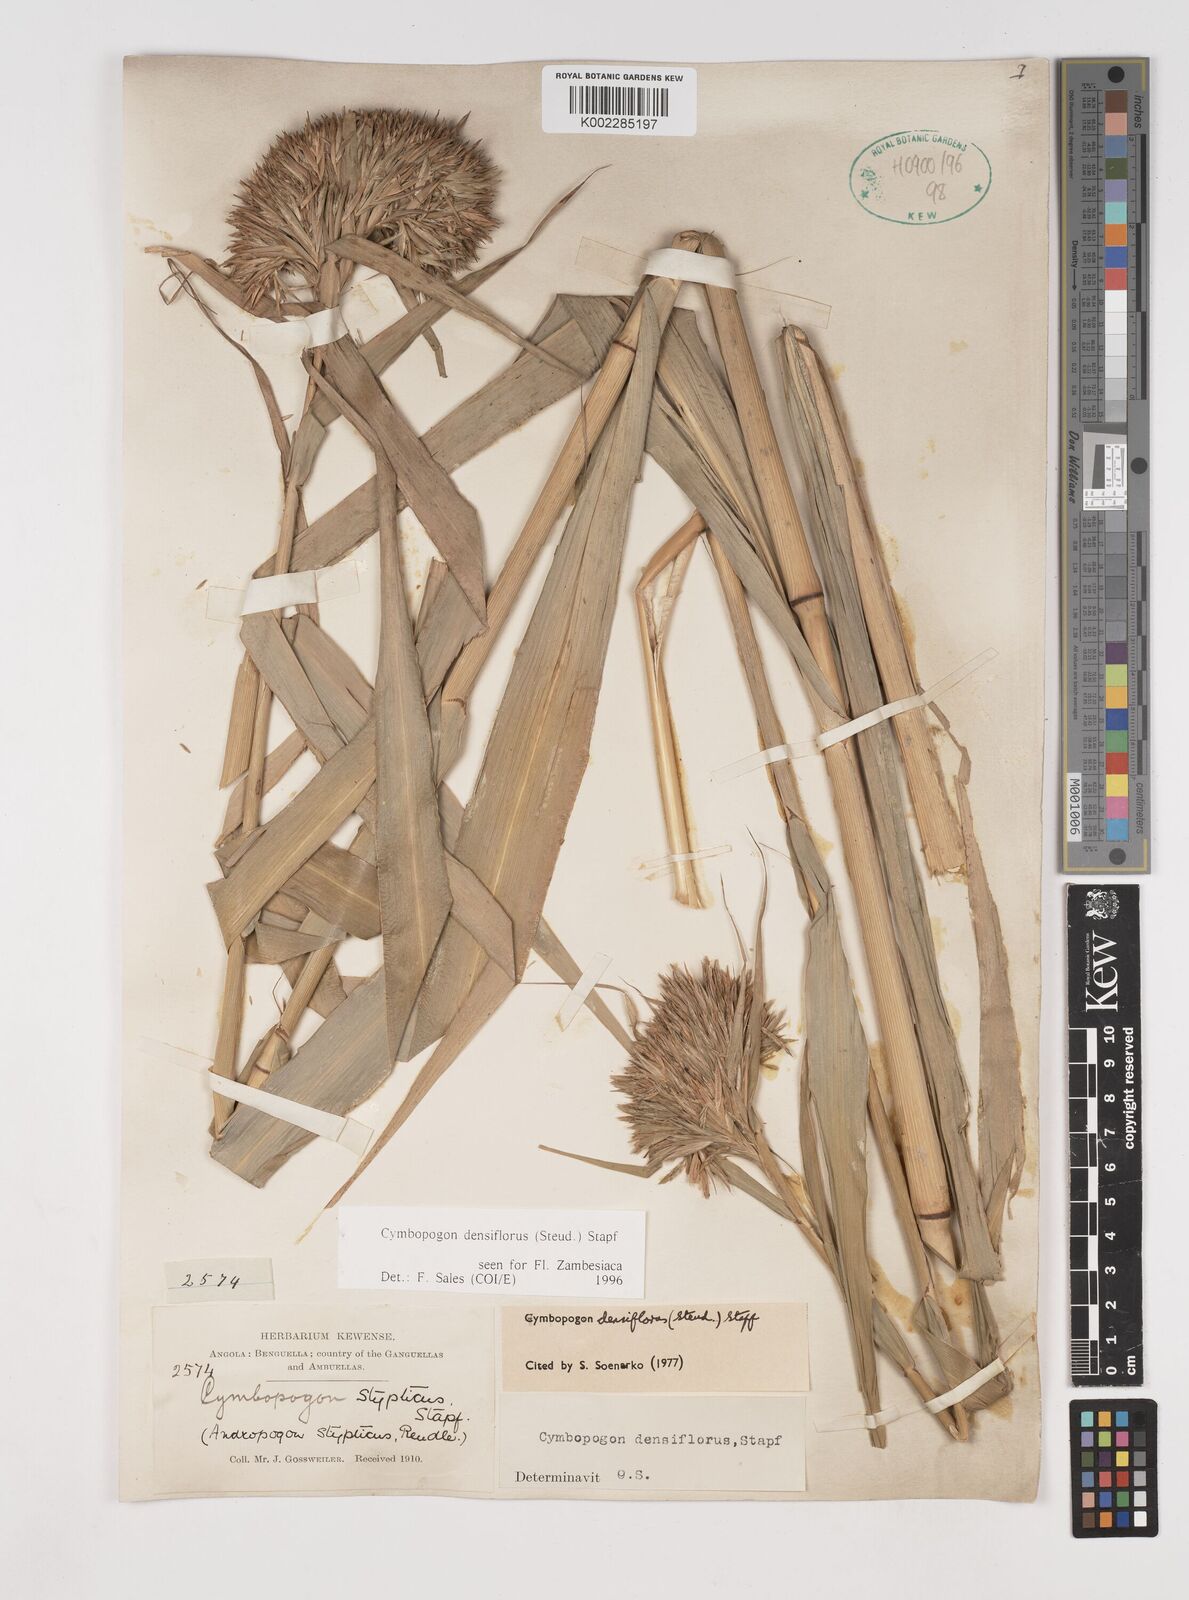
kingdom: Plantae
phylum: Tracheophyta
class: Liliopsida
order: Poales
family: Poaceae
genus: Cymbopogon
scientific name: Cymbopogon densiflorus
